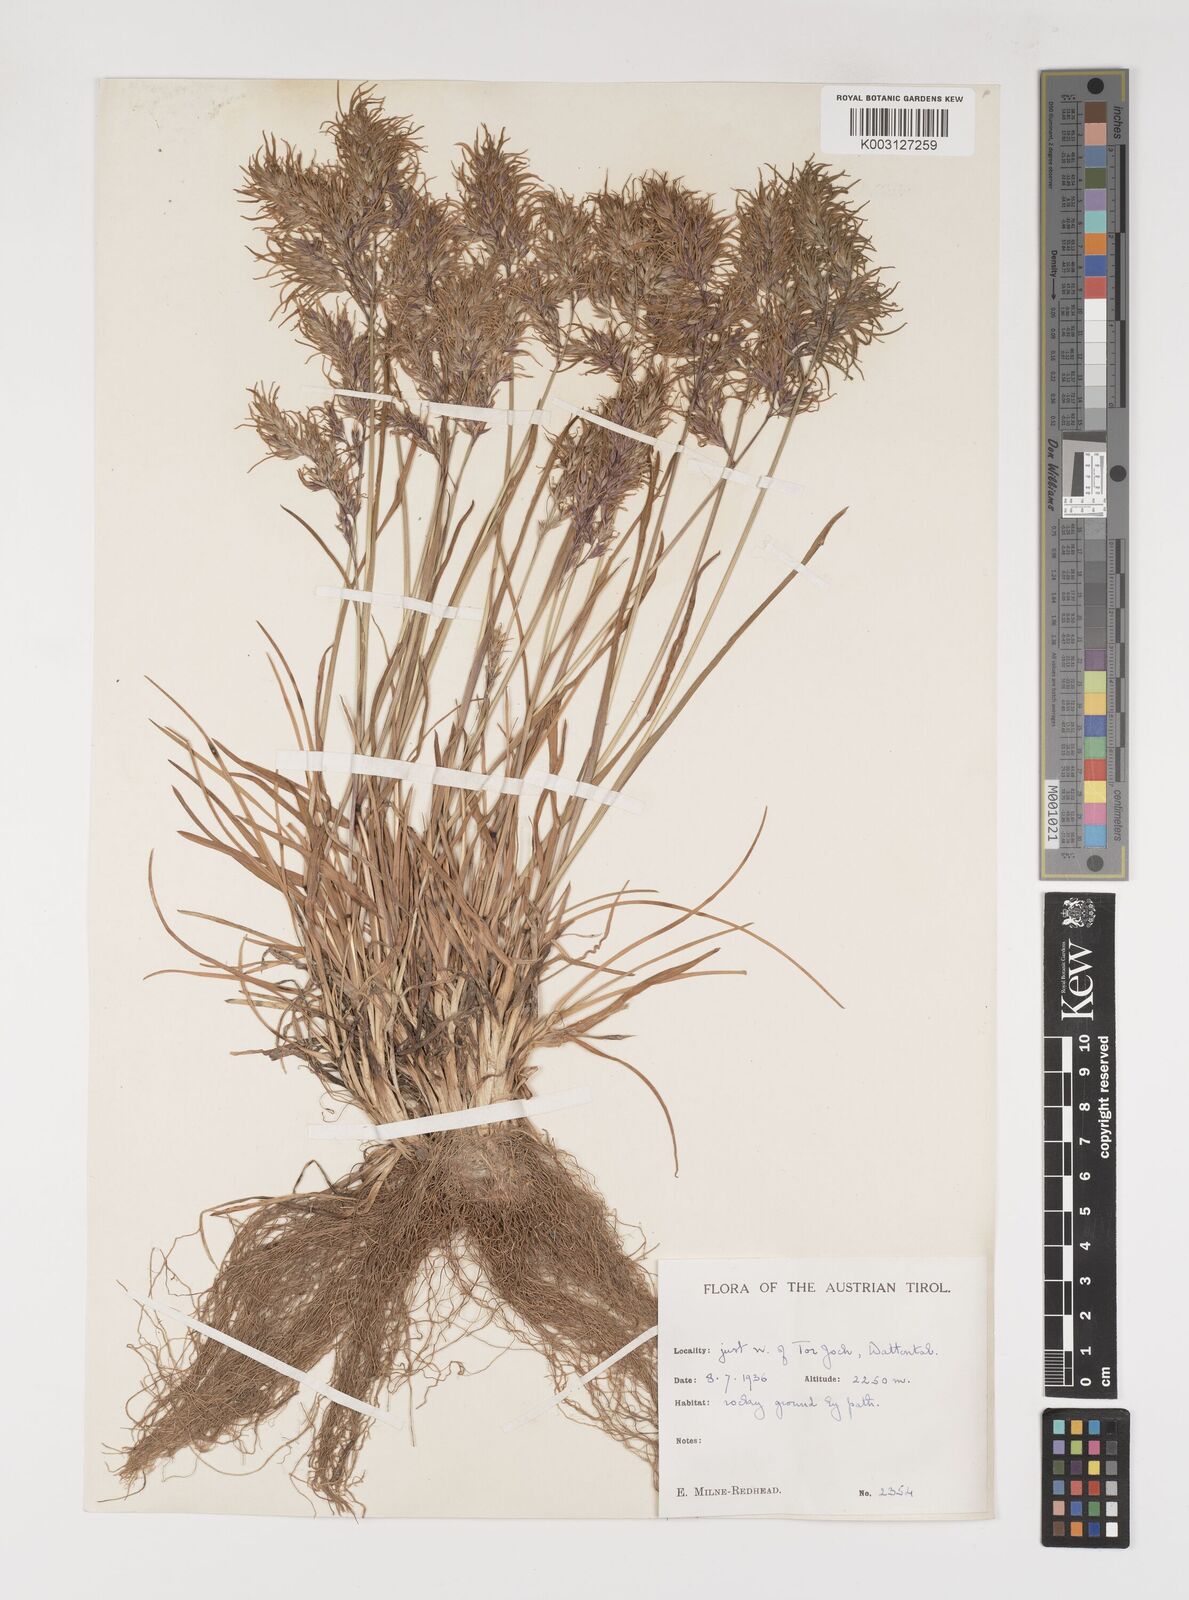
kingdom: Plantae
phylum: Tracheophyta
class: Liliopsida
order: Poales
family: Poaceae
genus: Poa
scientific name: Poa alpina
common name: Alpine bluegrass
